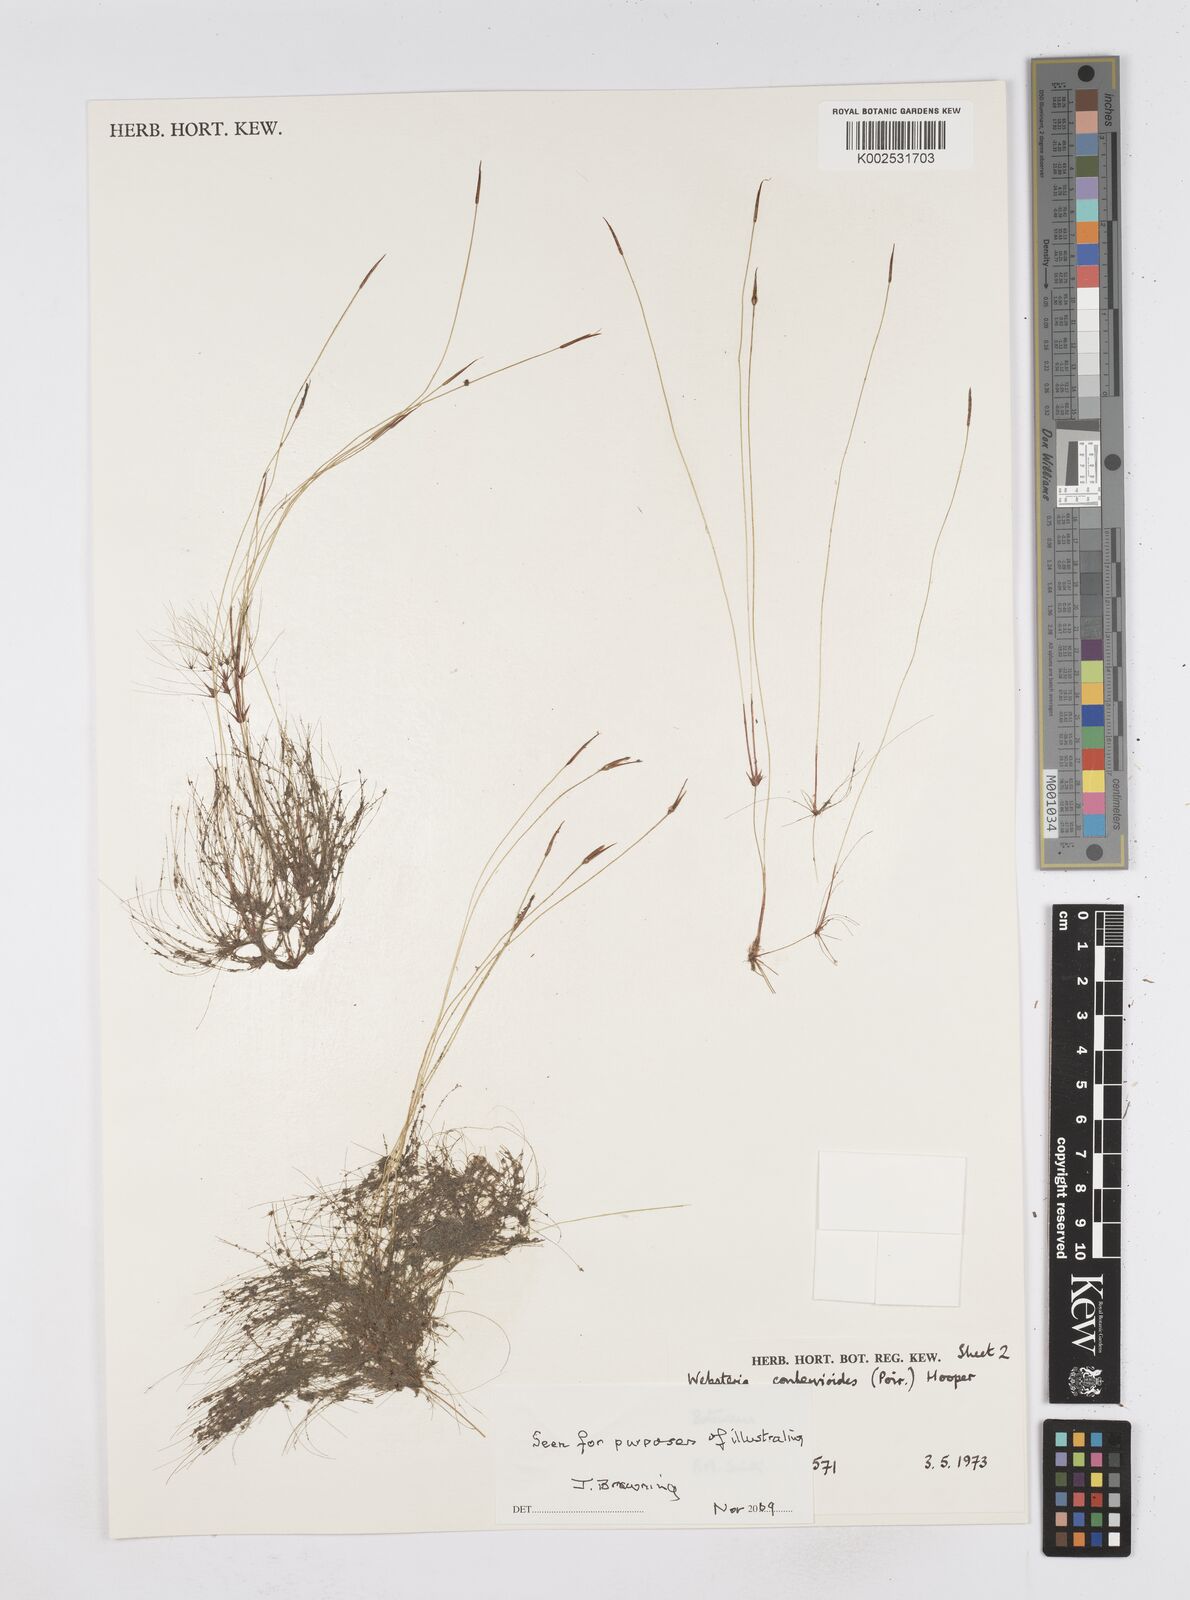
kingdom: Plantae
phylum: Tracheophyta
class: Liliopsida
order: Poales
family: Cyperaceae
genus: Eleocharis
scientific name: Eleocharis confervoides
